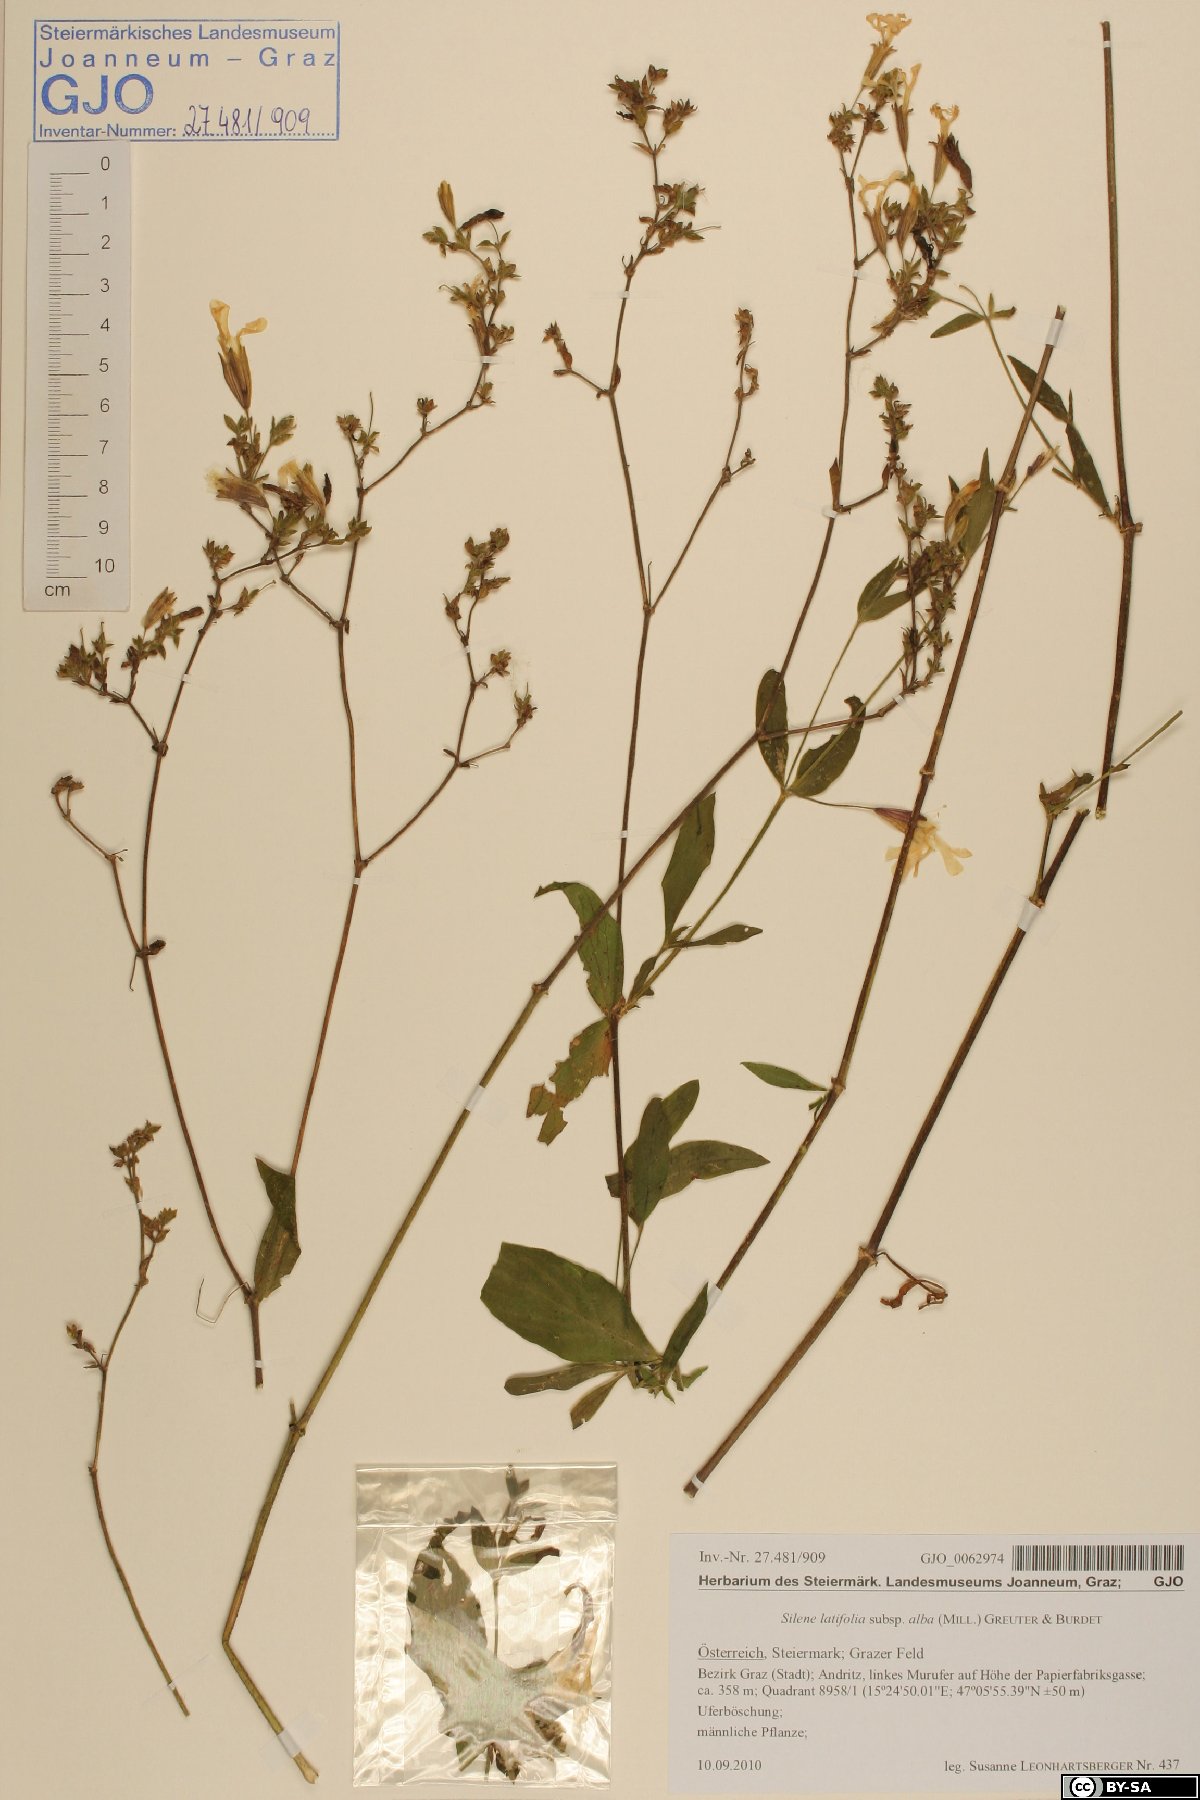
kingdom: Plantae
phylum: Tracheophyta
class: Magnoliopsida
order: Caryophyllales
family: Caryophyllaceae
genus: Silene
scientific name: Silene latifolia
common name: White campion
